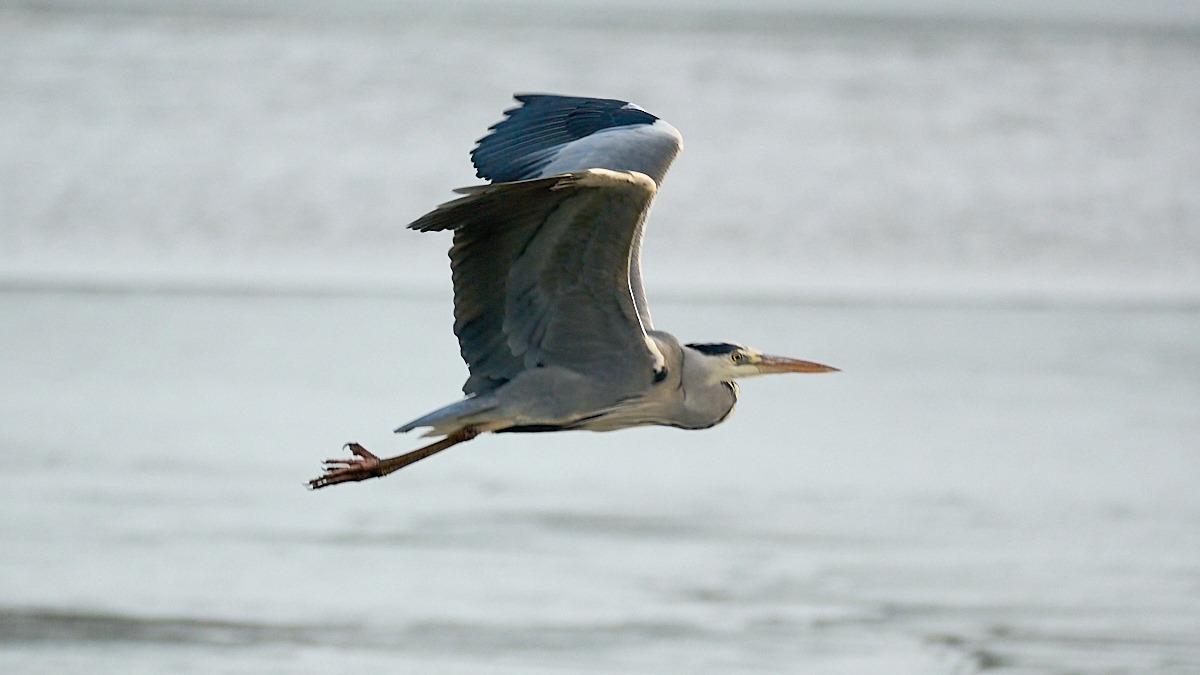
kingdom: Animalia
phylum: Chordata
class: Aves
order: Pelecaniformes
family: Ardeidae
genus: Ardea
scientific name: Ardea cinerea
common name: Fiskehejre
